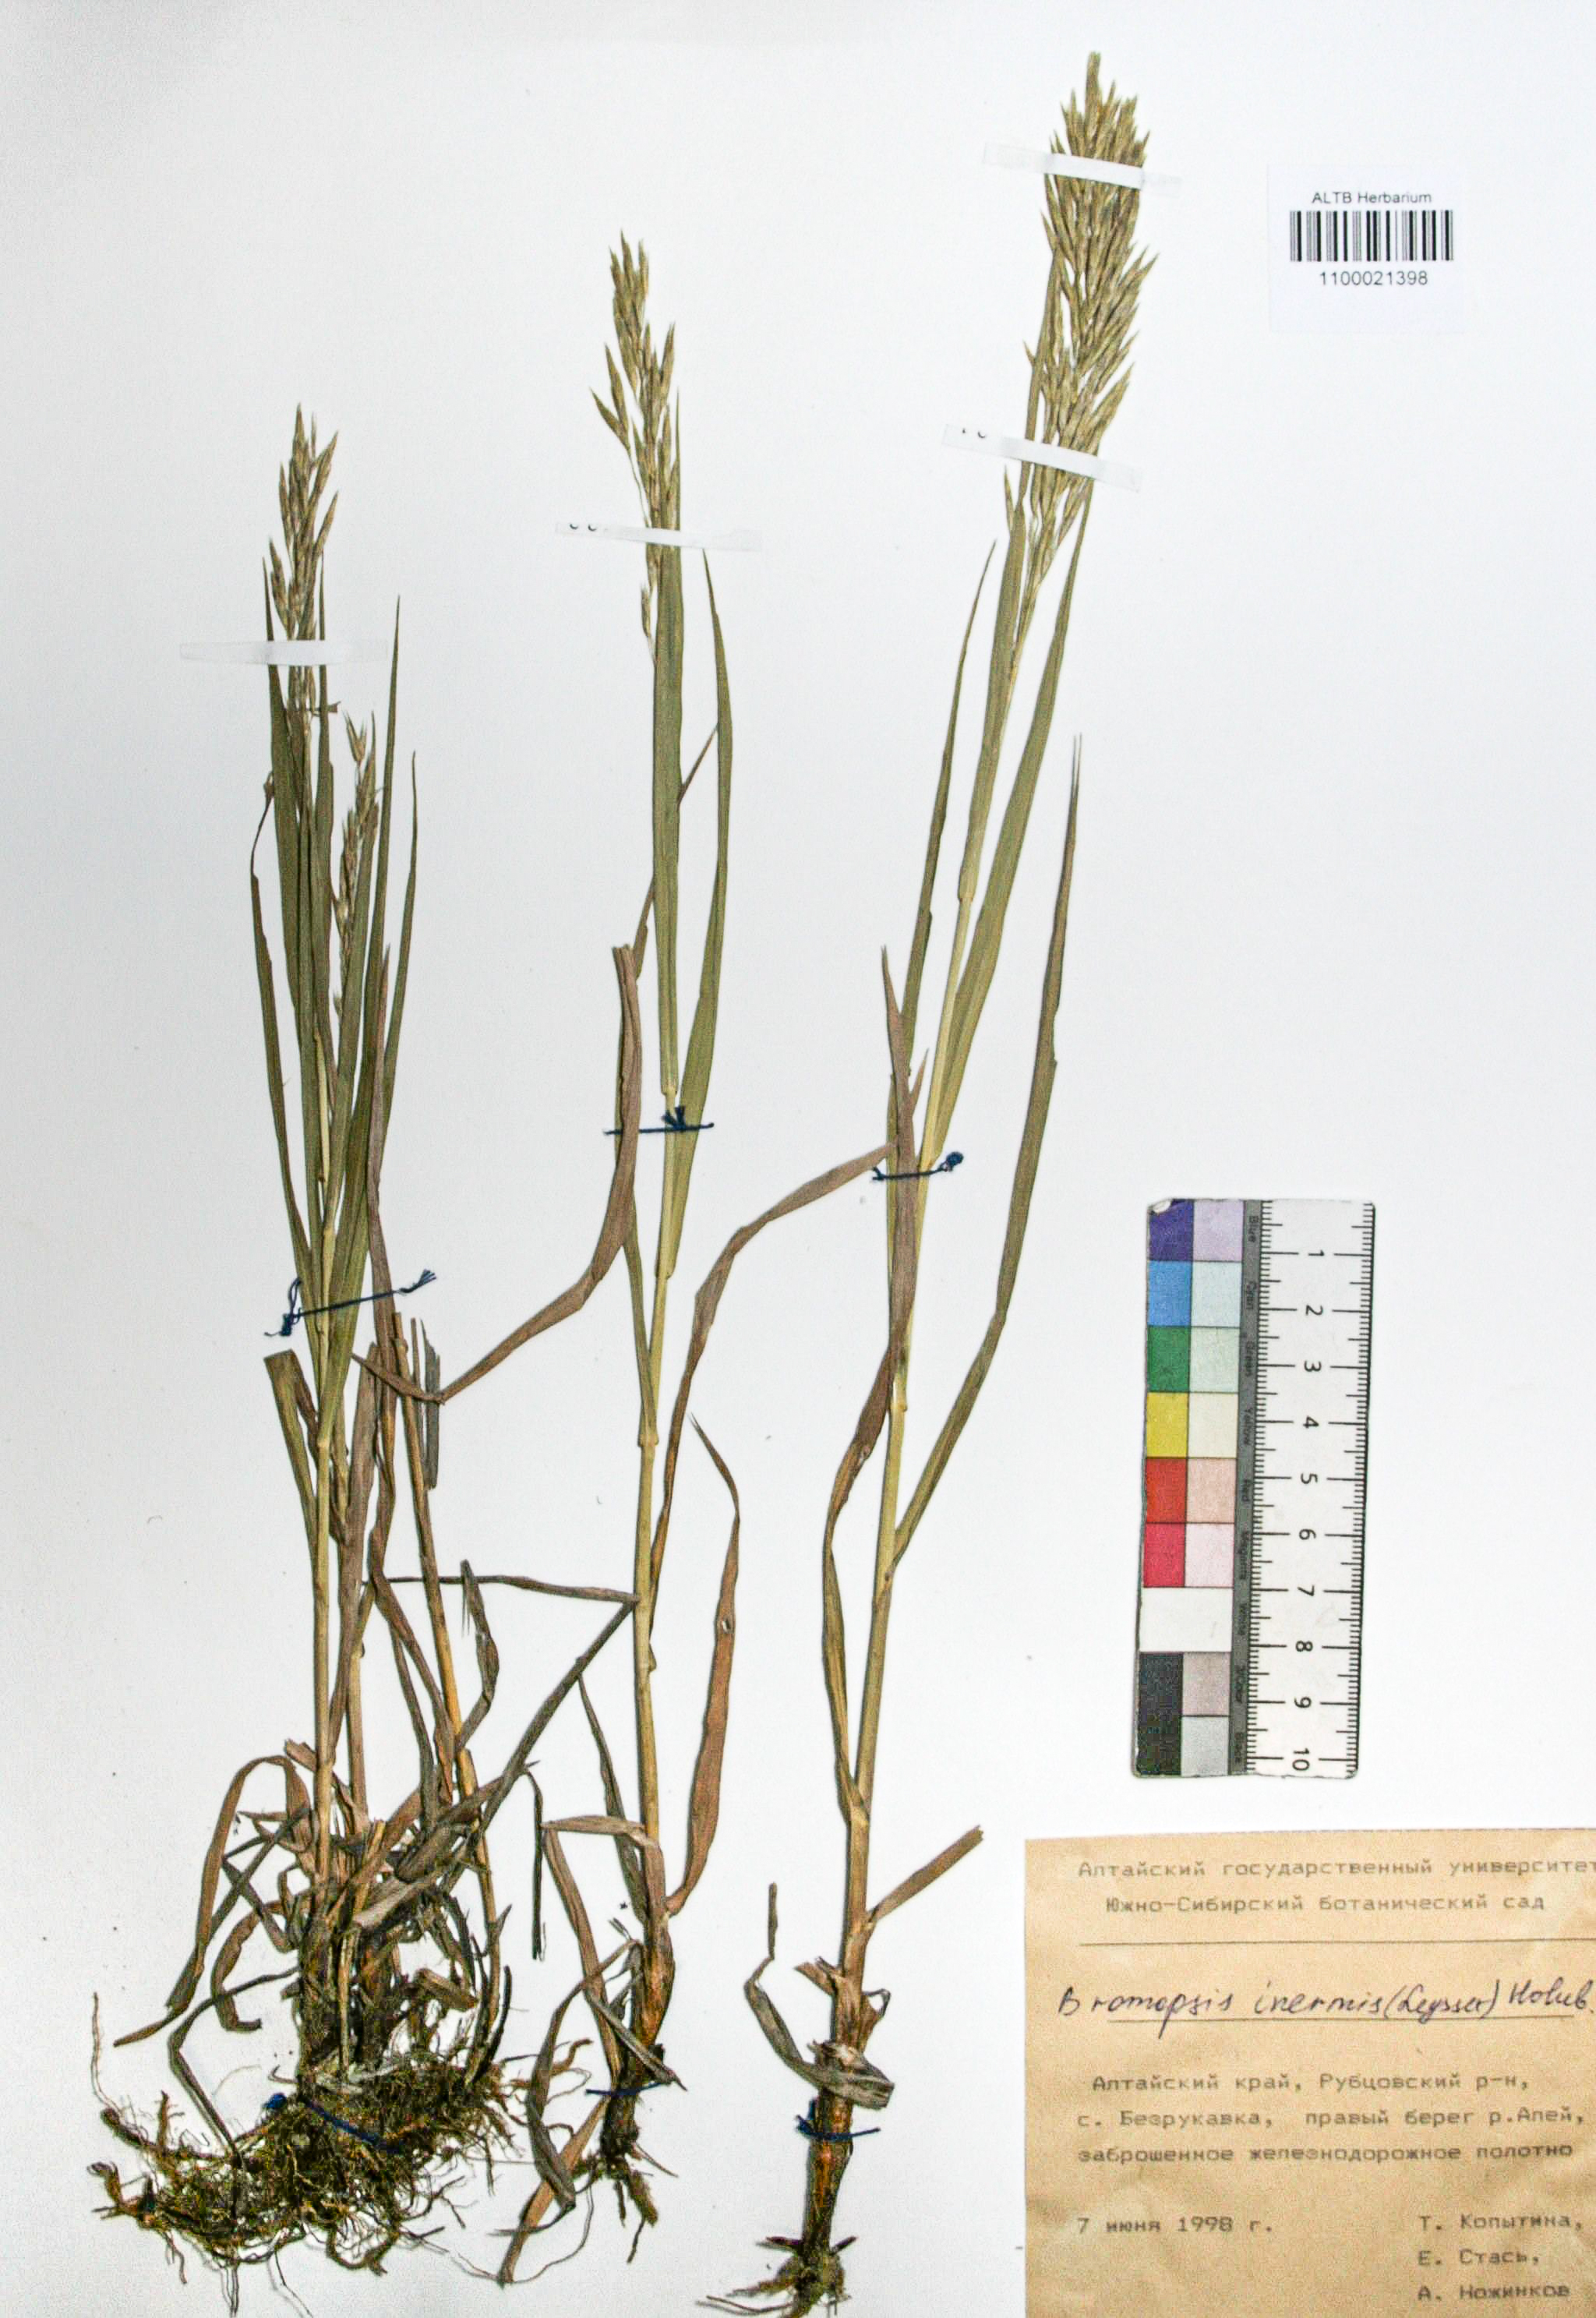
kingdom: Plantae
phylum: Tracheophyta
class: Liliopsida
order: Poales
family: Poaceae
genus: Bromus
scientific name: Bromus inermis
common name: Smooth brome
